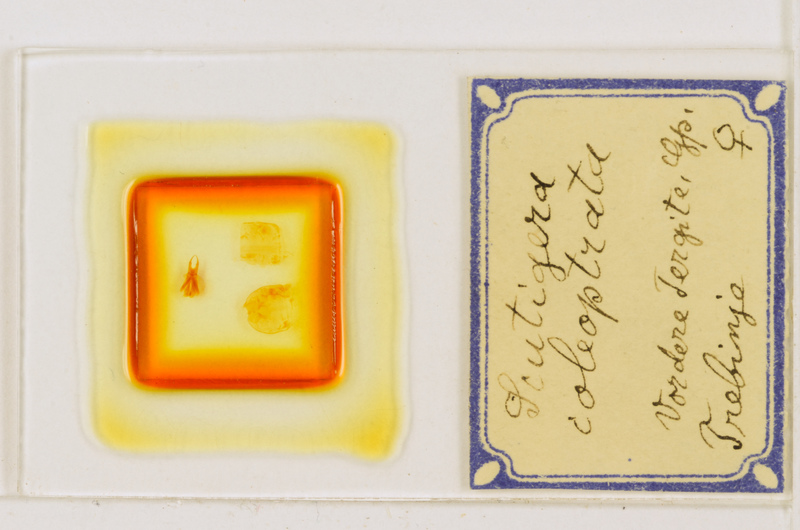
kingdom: Animalia
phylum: Arthropoda
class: Chilopoda
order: Scutigeromorpha
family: Scutigeridae
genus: Scutigera
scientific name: Scutigera coleoptrata
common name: House centipede
